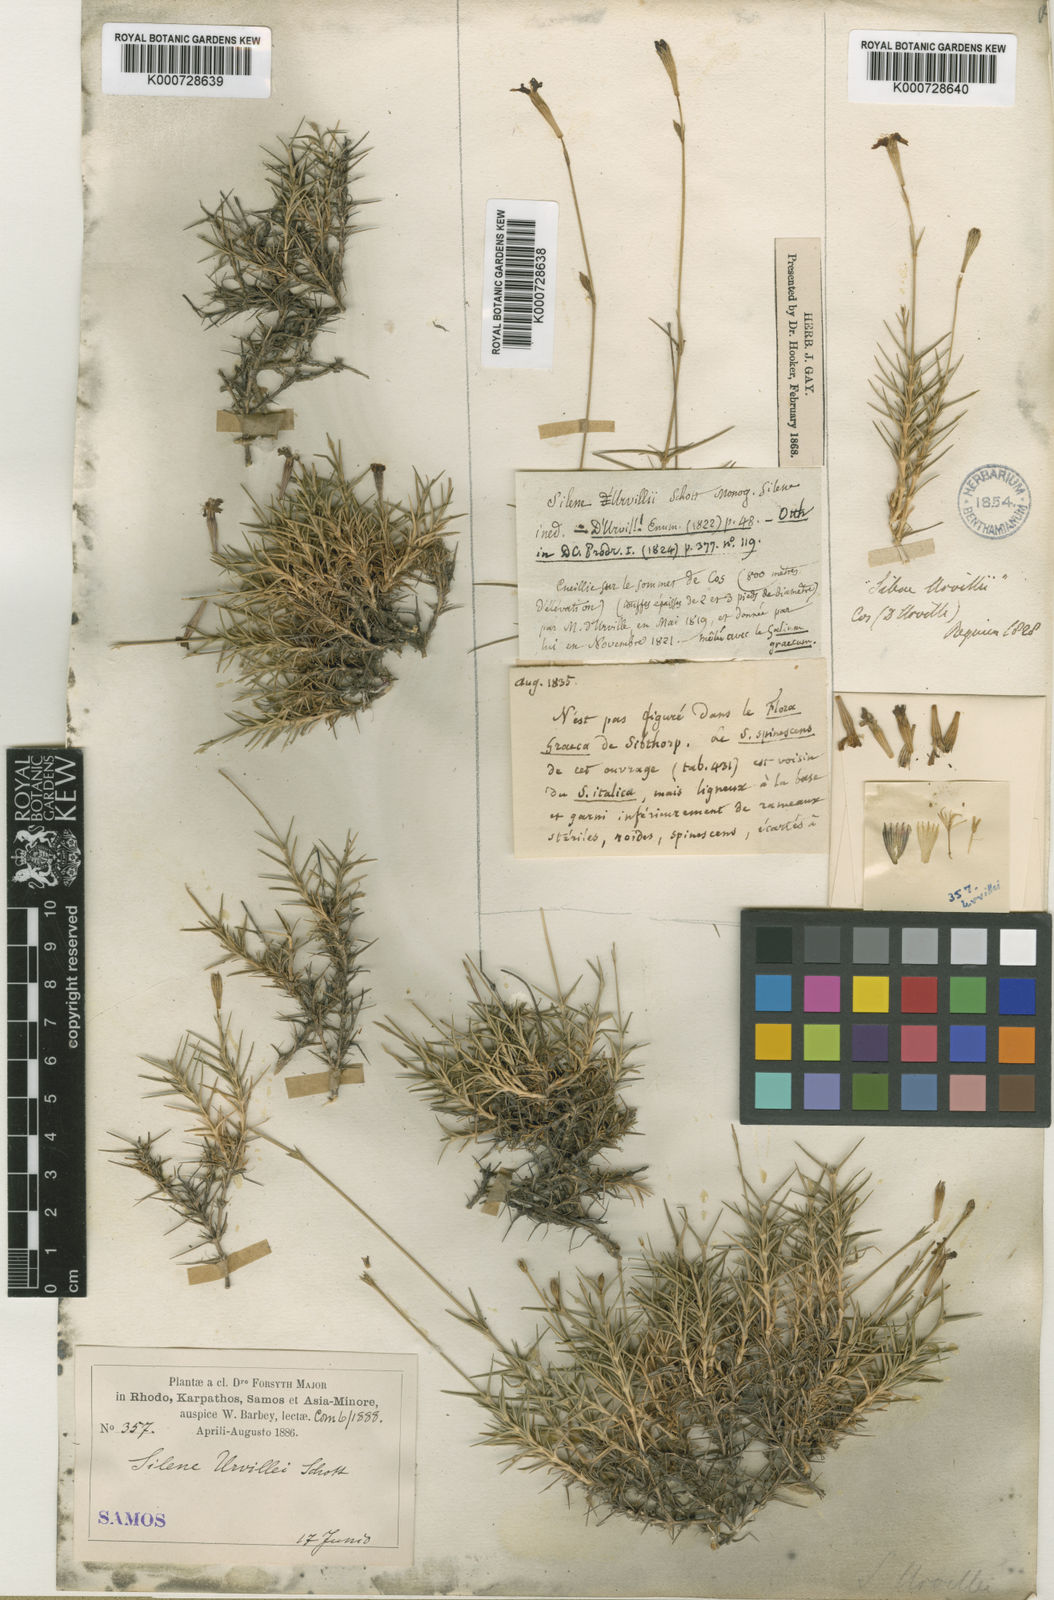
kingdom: Plantae
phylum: Tracheophyta
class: Magnoliopsida
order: Caryophyllales
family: Caryophyllaceae
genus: Silene
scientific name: Silene urvillei
